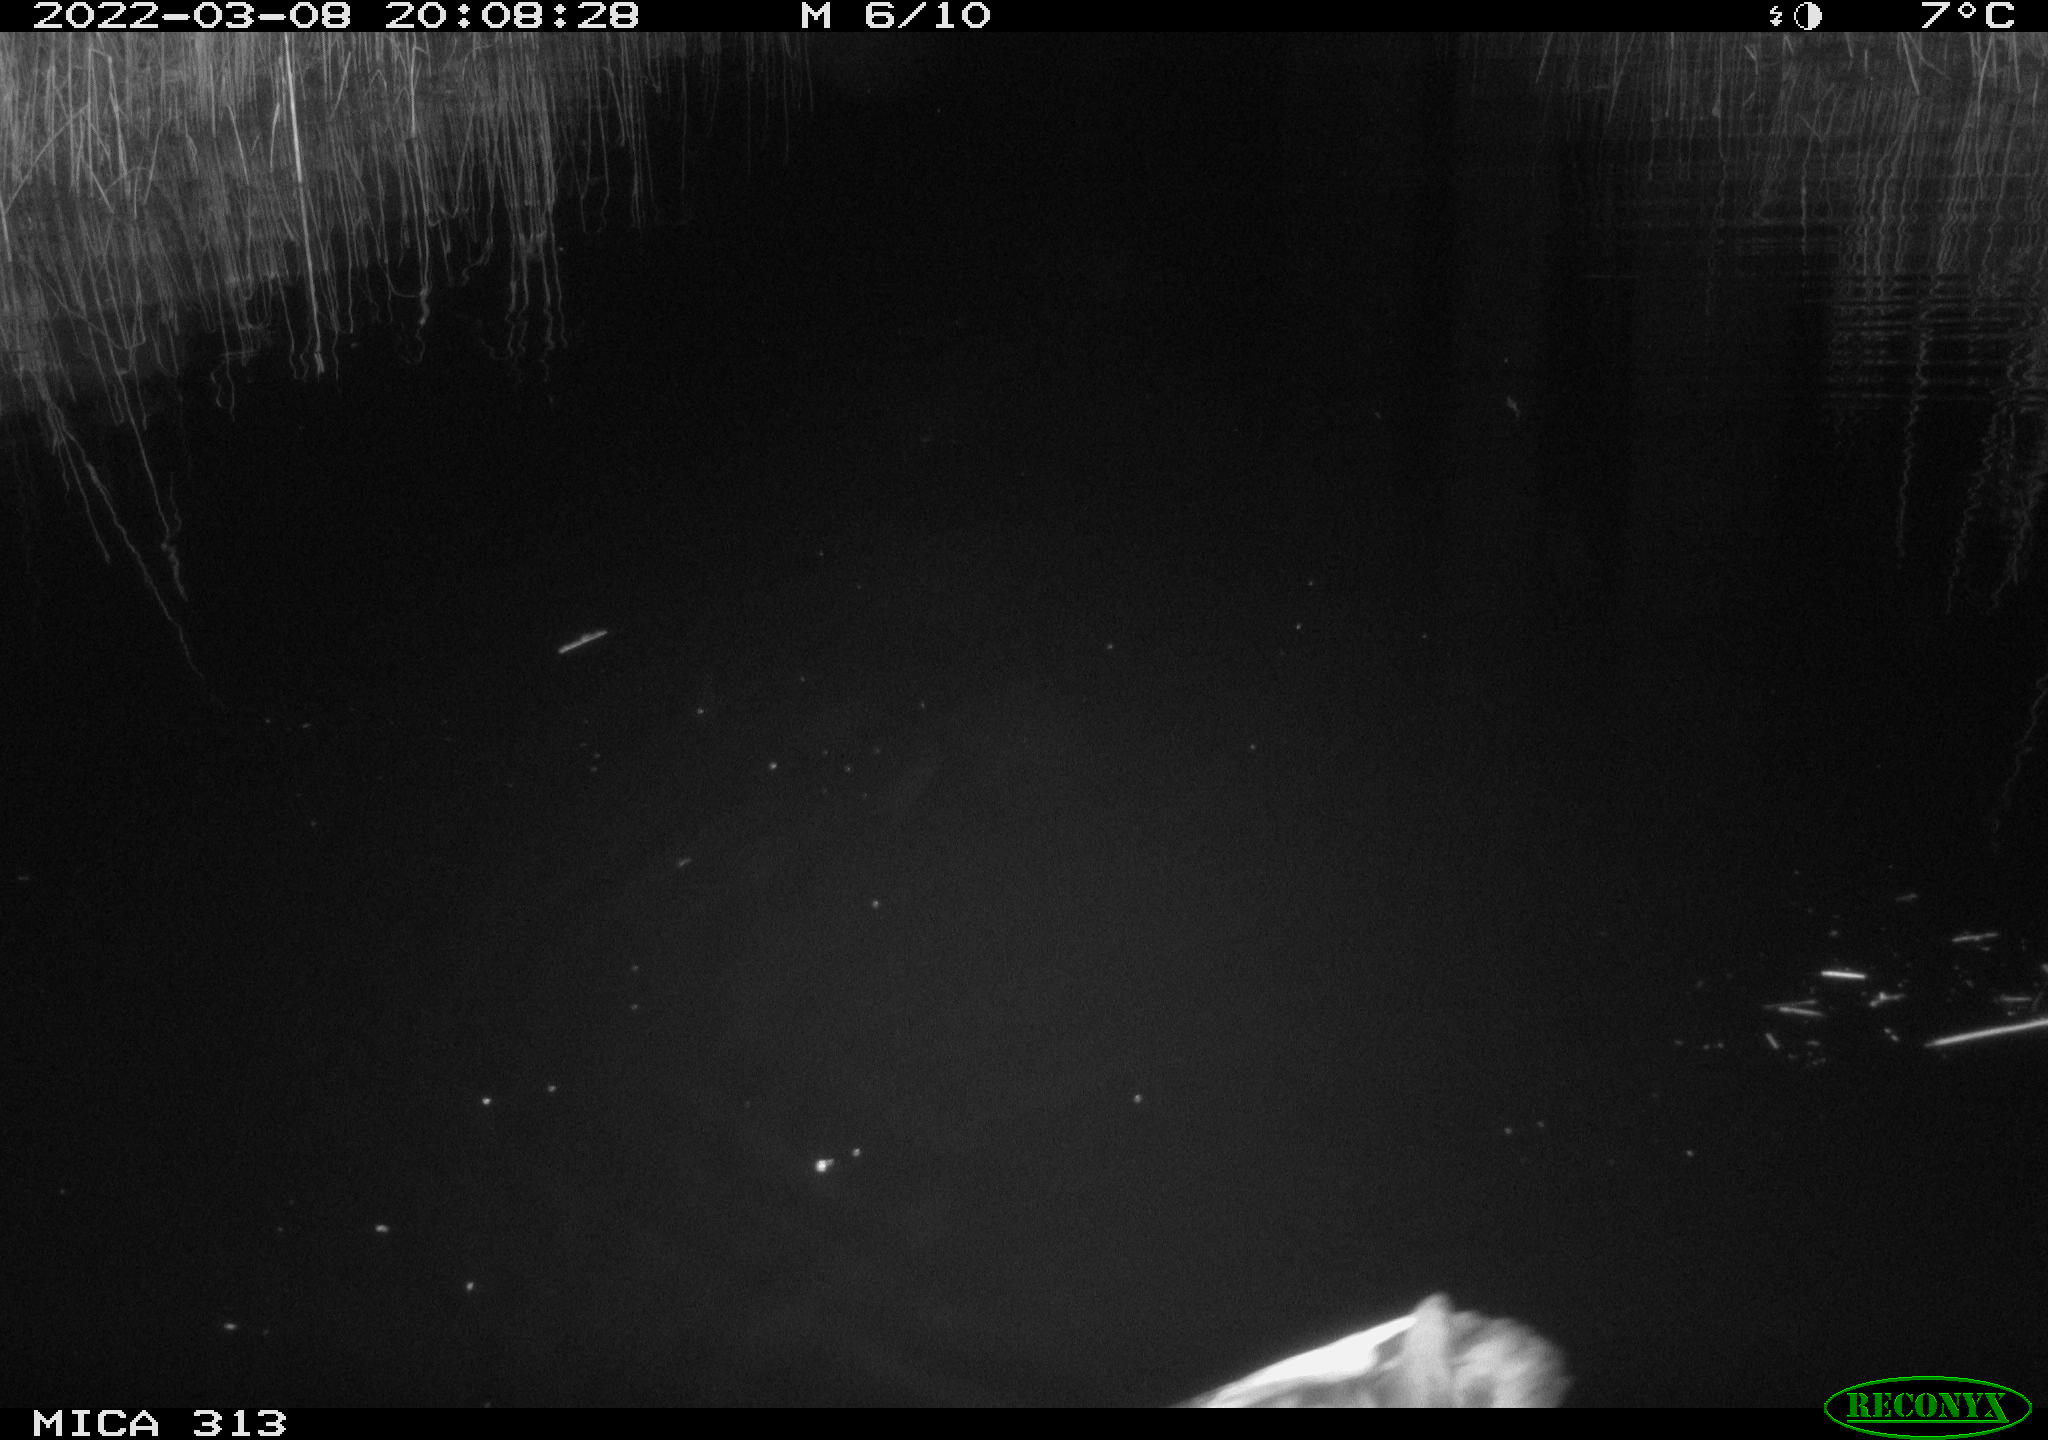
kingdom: Animalia
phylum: Chordata
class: Aves
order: Gruiformes
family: Rallidae
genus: Gallinula
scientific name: Gallinula chloropus
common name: Common moorhen
